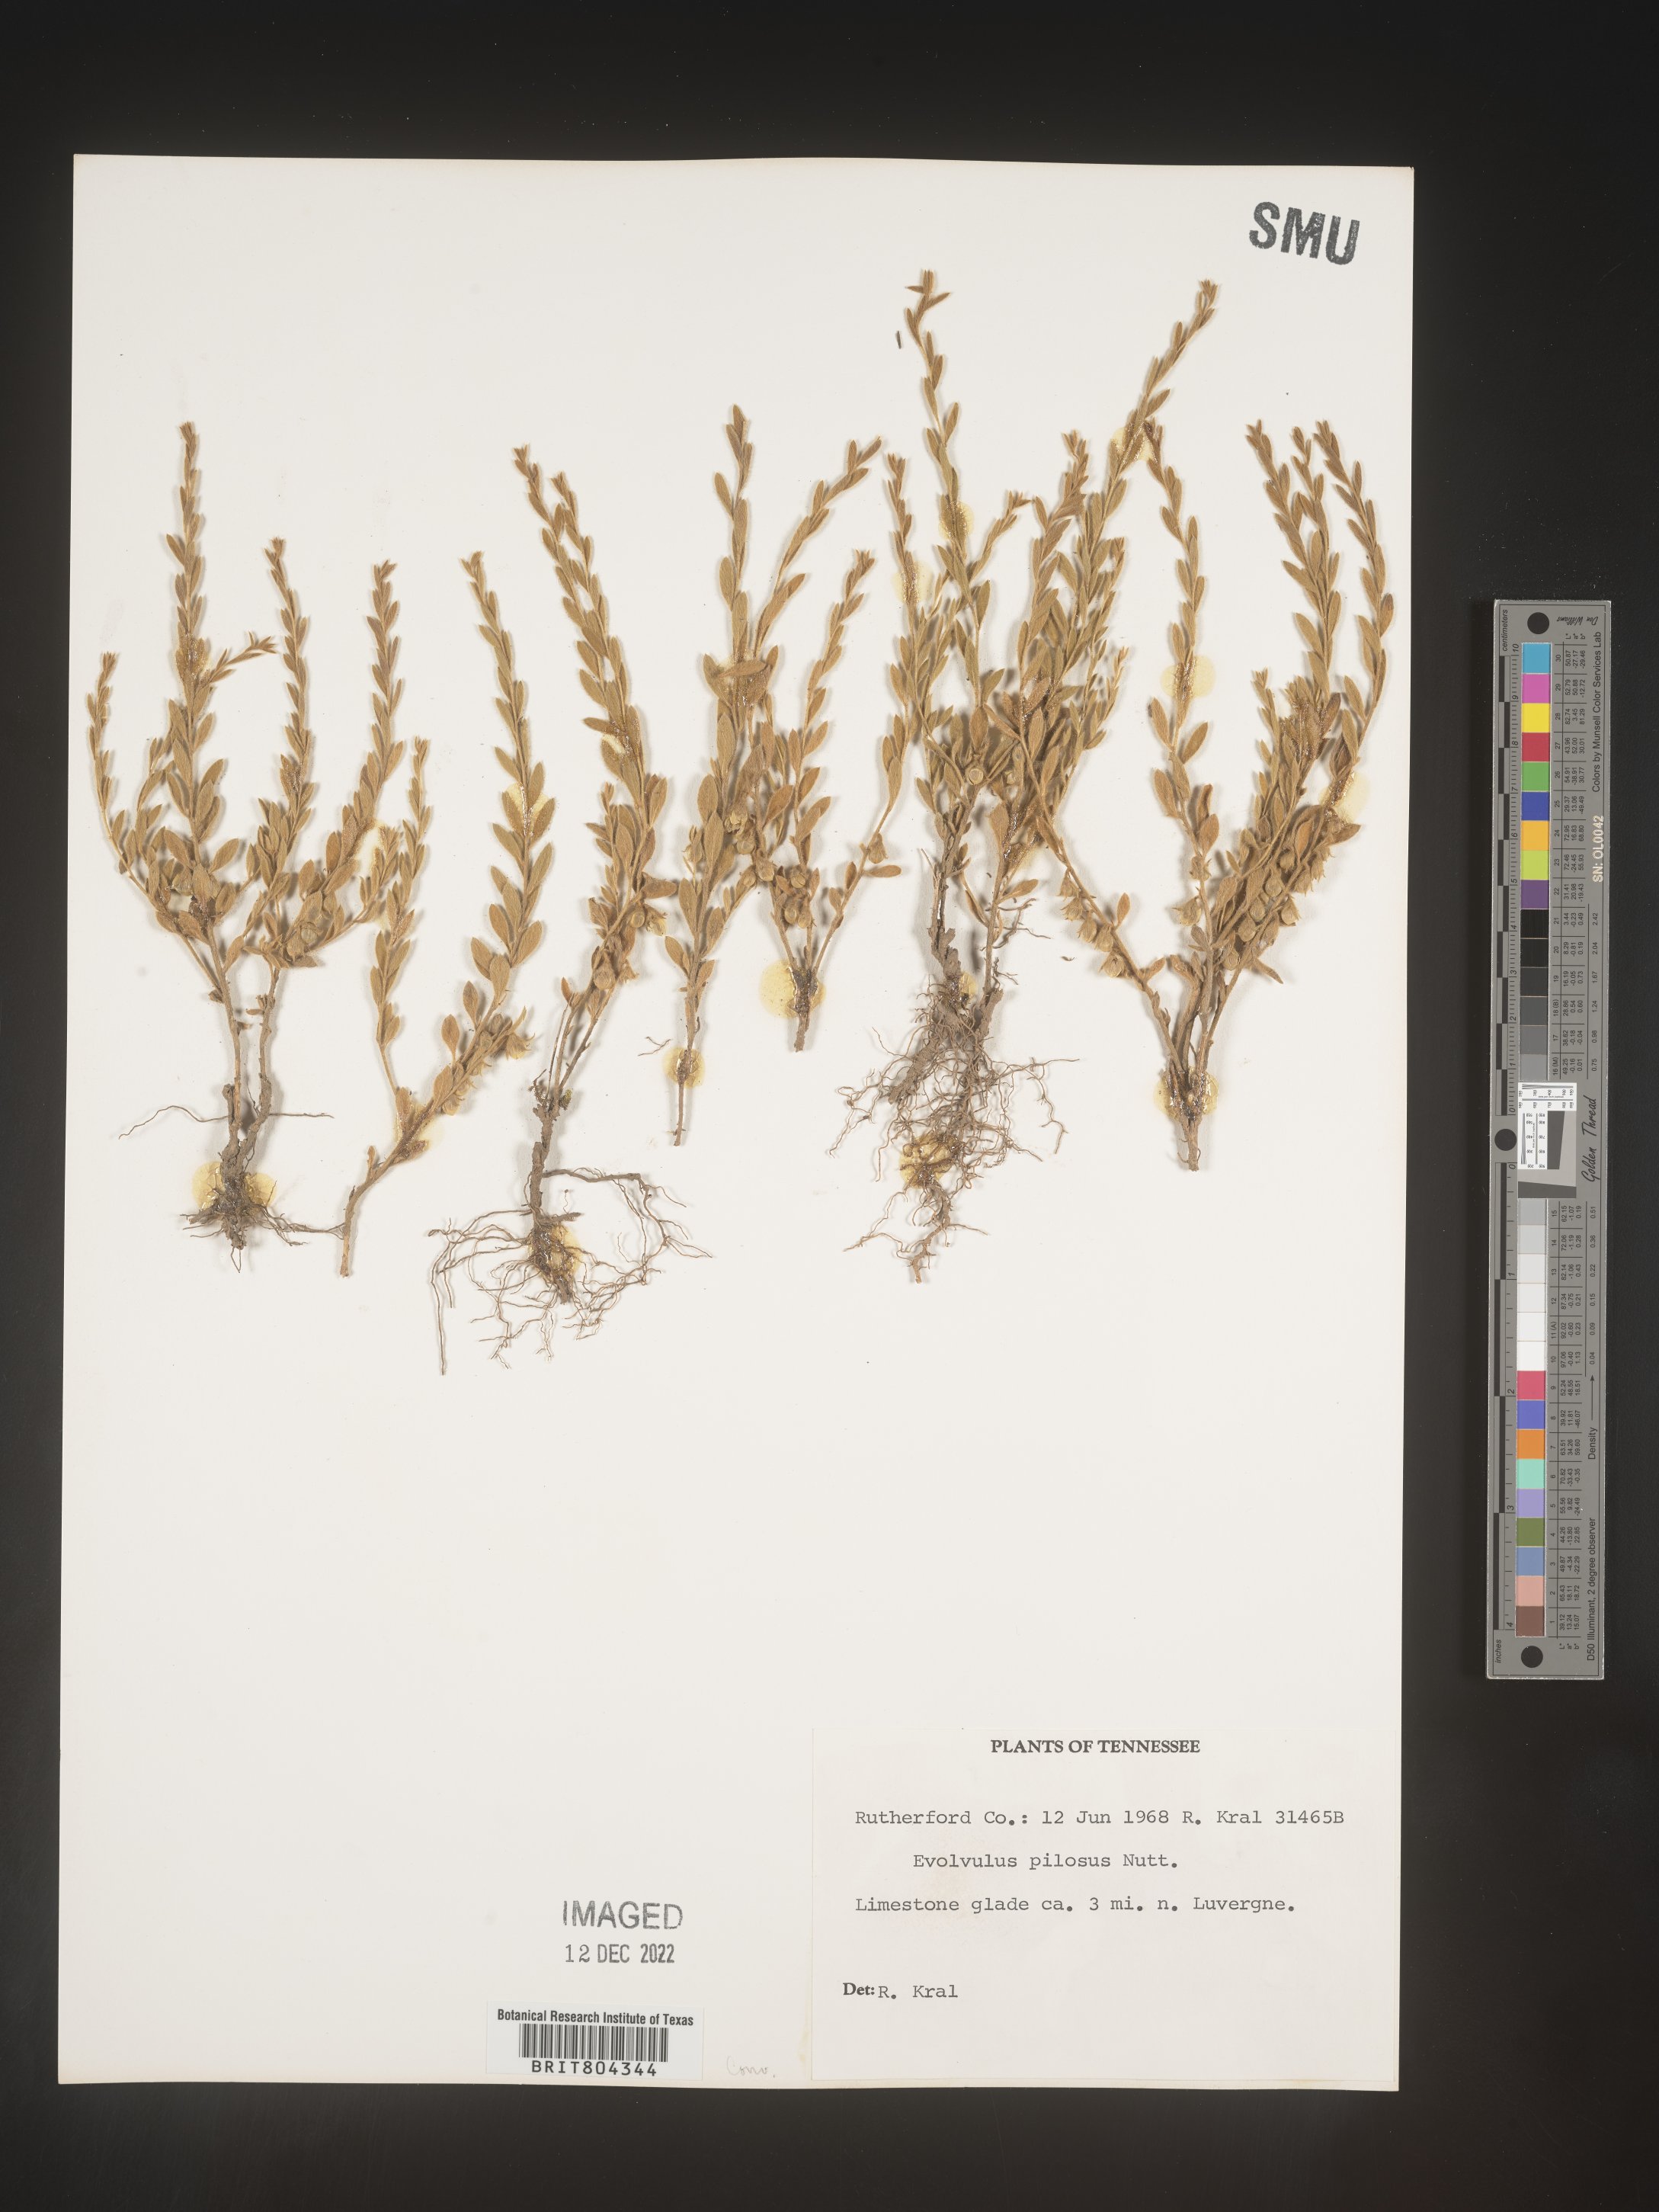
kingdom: Plantae
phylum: Tracheophyta
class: Magnoliopsida
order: Solanales
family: Convolvulaceae
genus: Evolvulus
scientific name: Evolvulus nuttallianus
